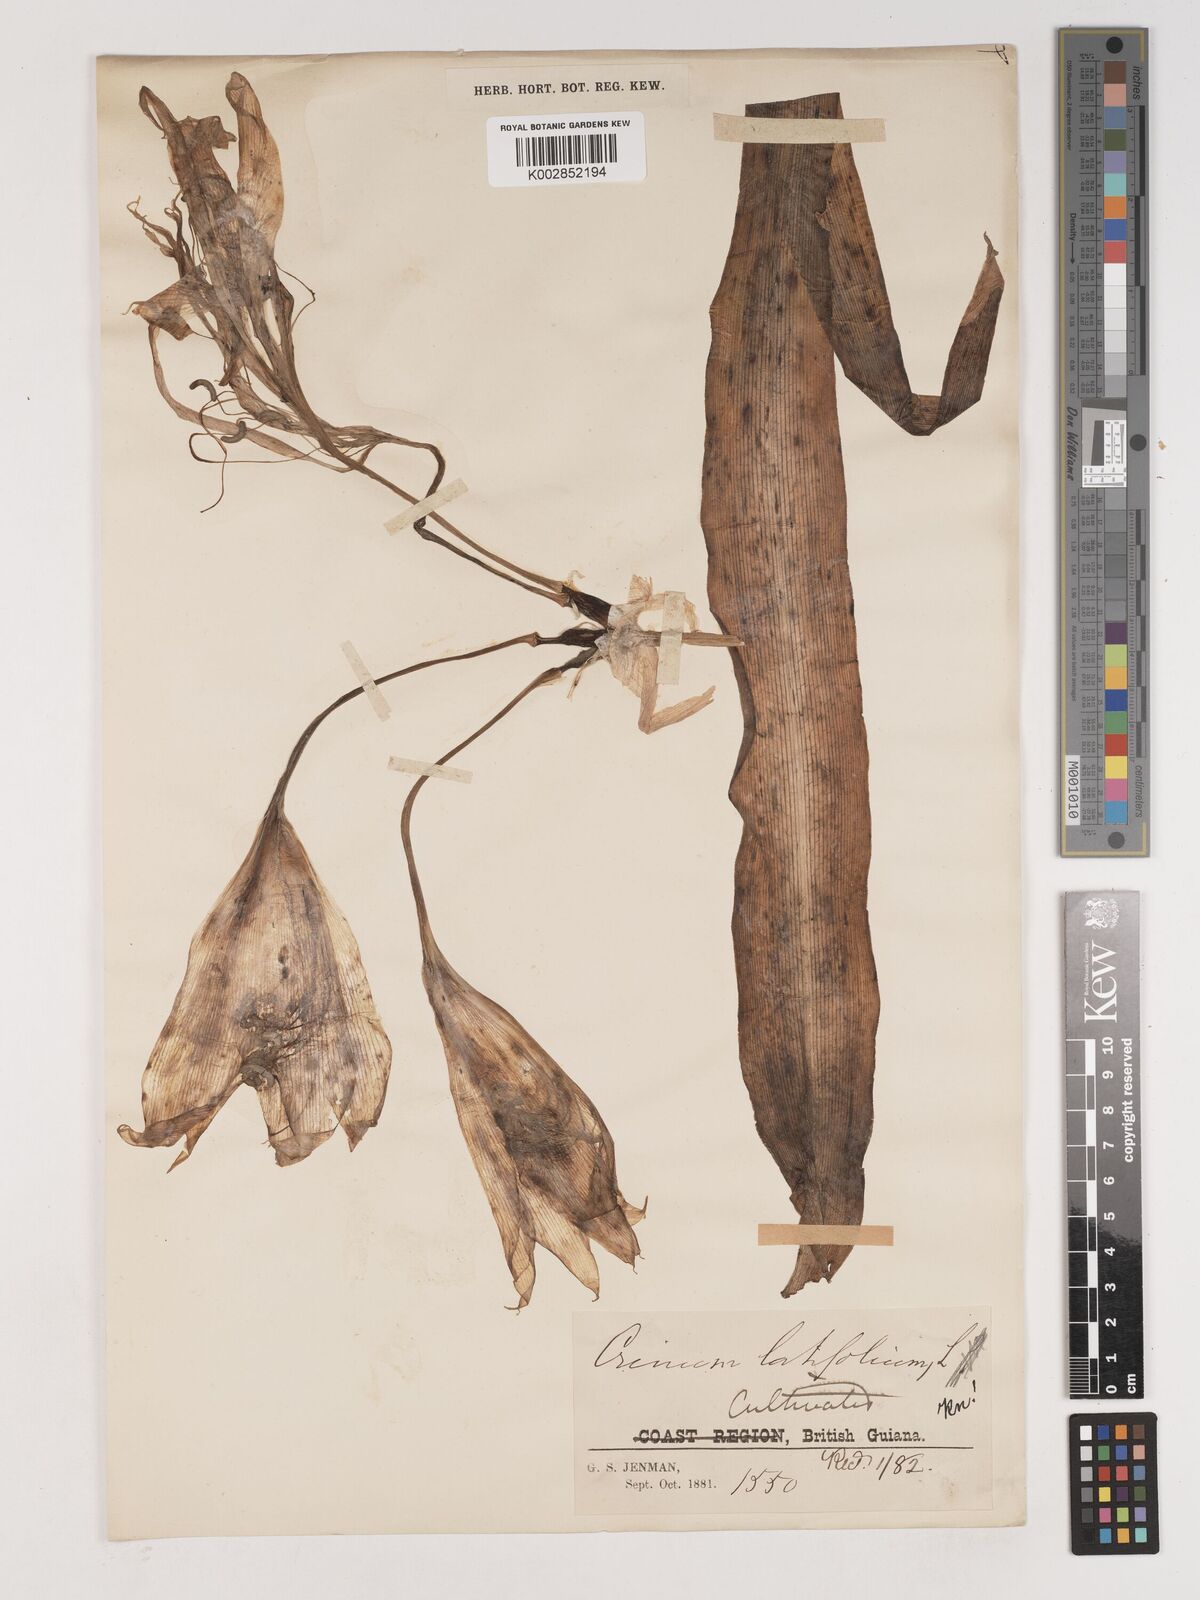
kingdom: Plantae
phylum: Tracheophyta
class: Liliopsida
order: Asparagales
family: Amaryllidaceae
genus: Crinum
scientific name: Crinum latifolium
